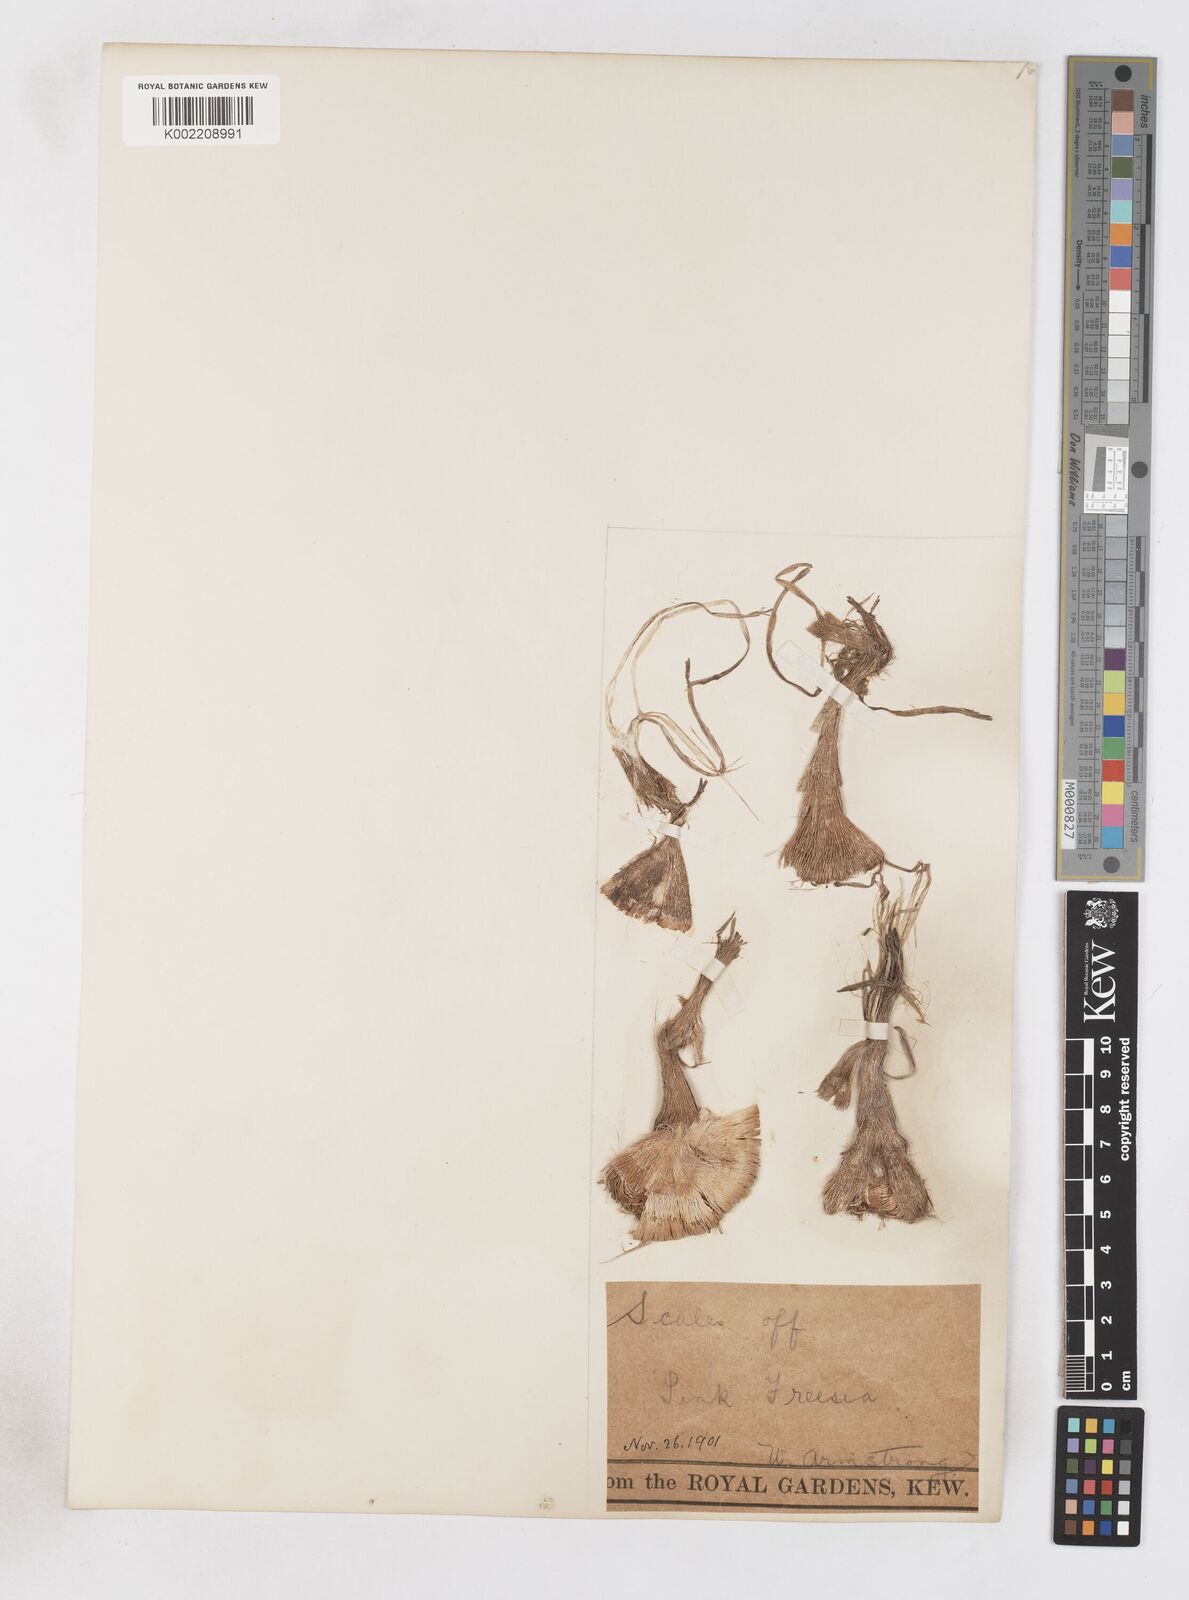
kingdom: Plantae
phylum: Tracheophyta
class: Liliopsida
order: Asparagales
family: Iridaceae
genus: Freesia
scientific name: Freesia corymbosa
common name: Common freesia
